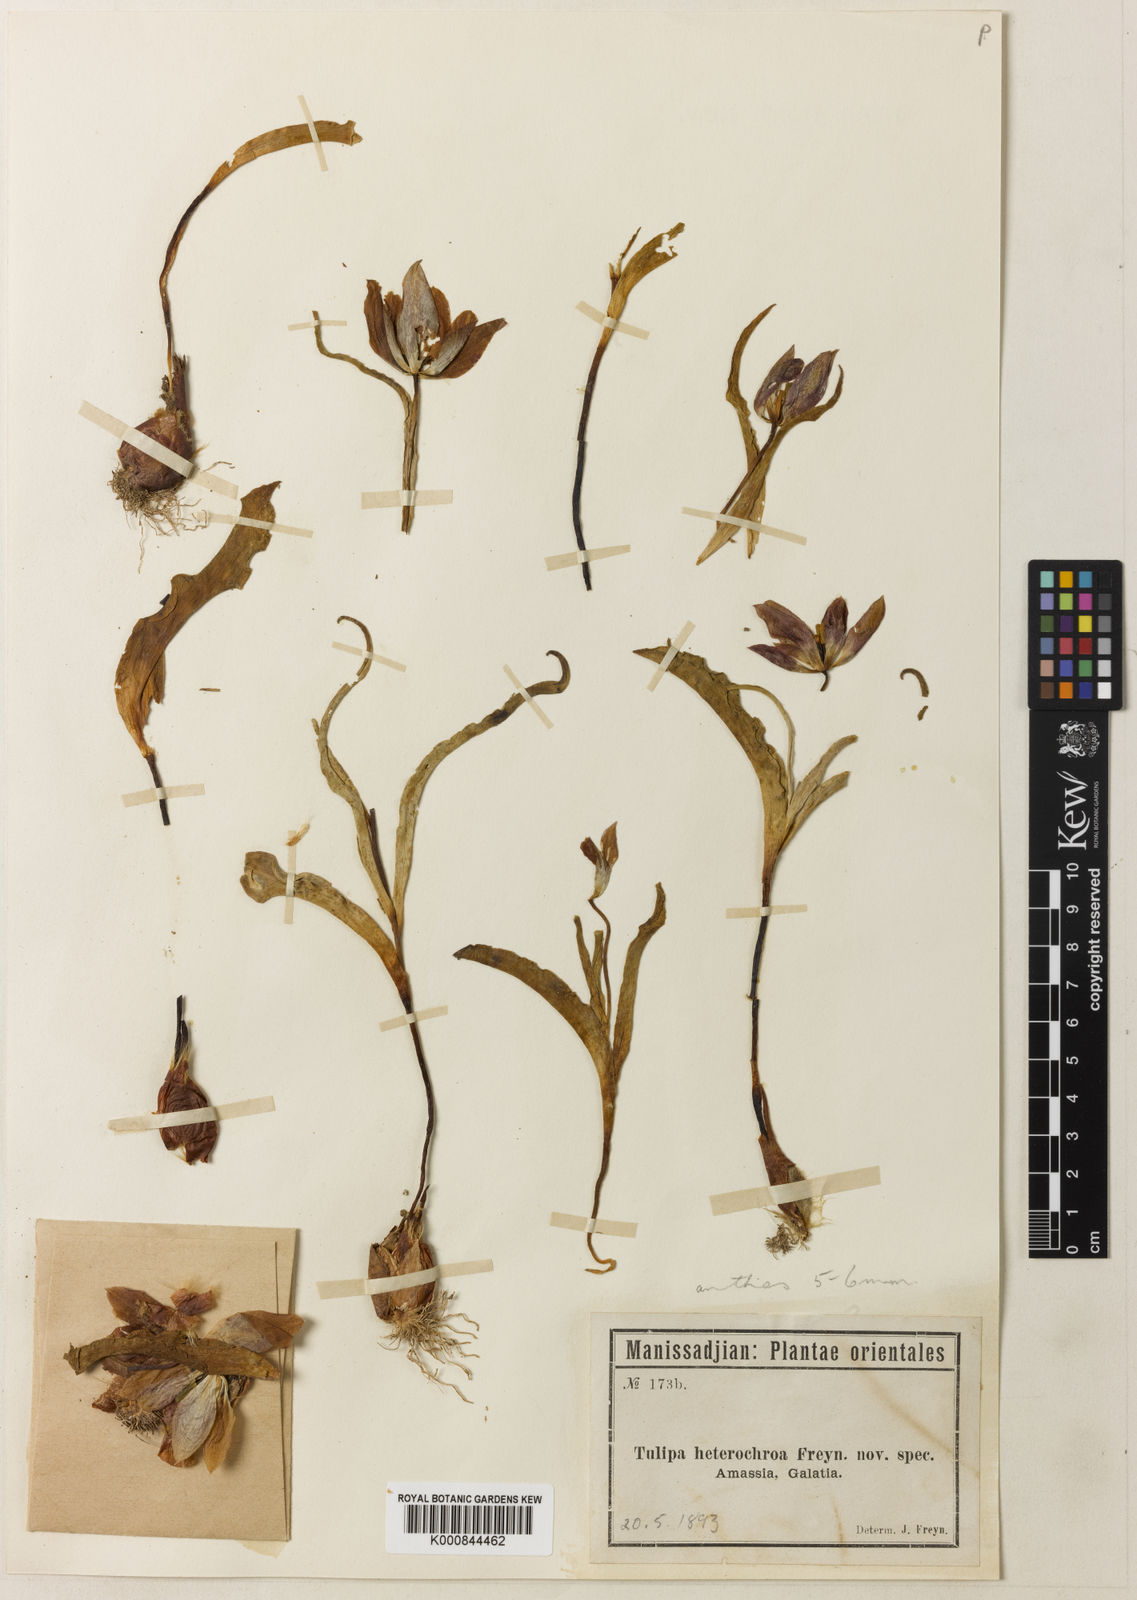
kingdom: Plantae
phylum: Tracheophyta
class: Liliopsida
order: Liliales
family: Liliaceae
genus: Tulipa
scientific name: Tulipa foliosa
